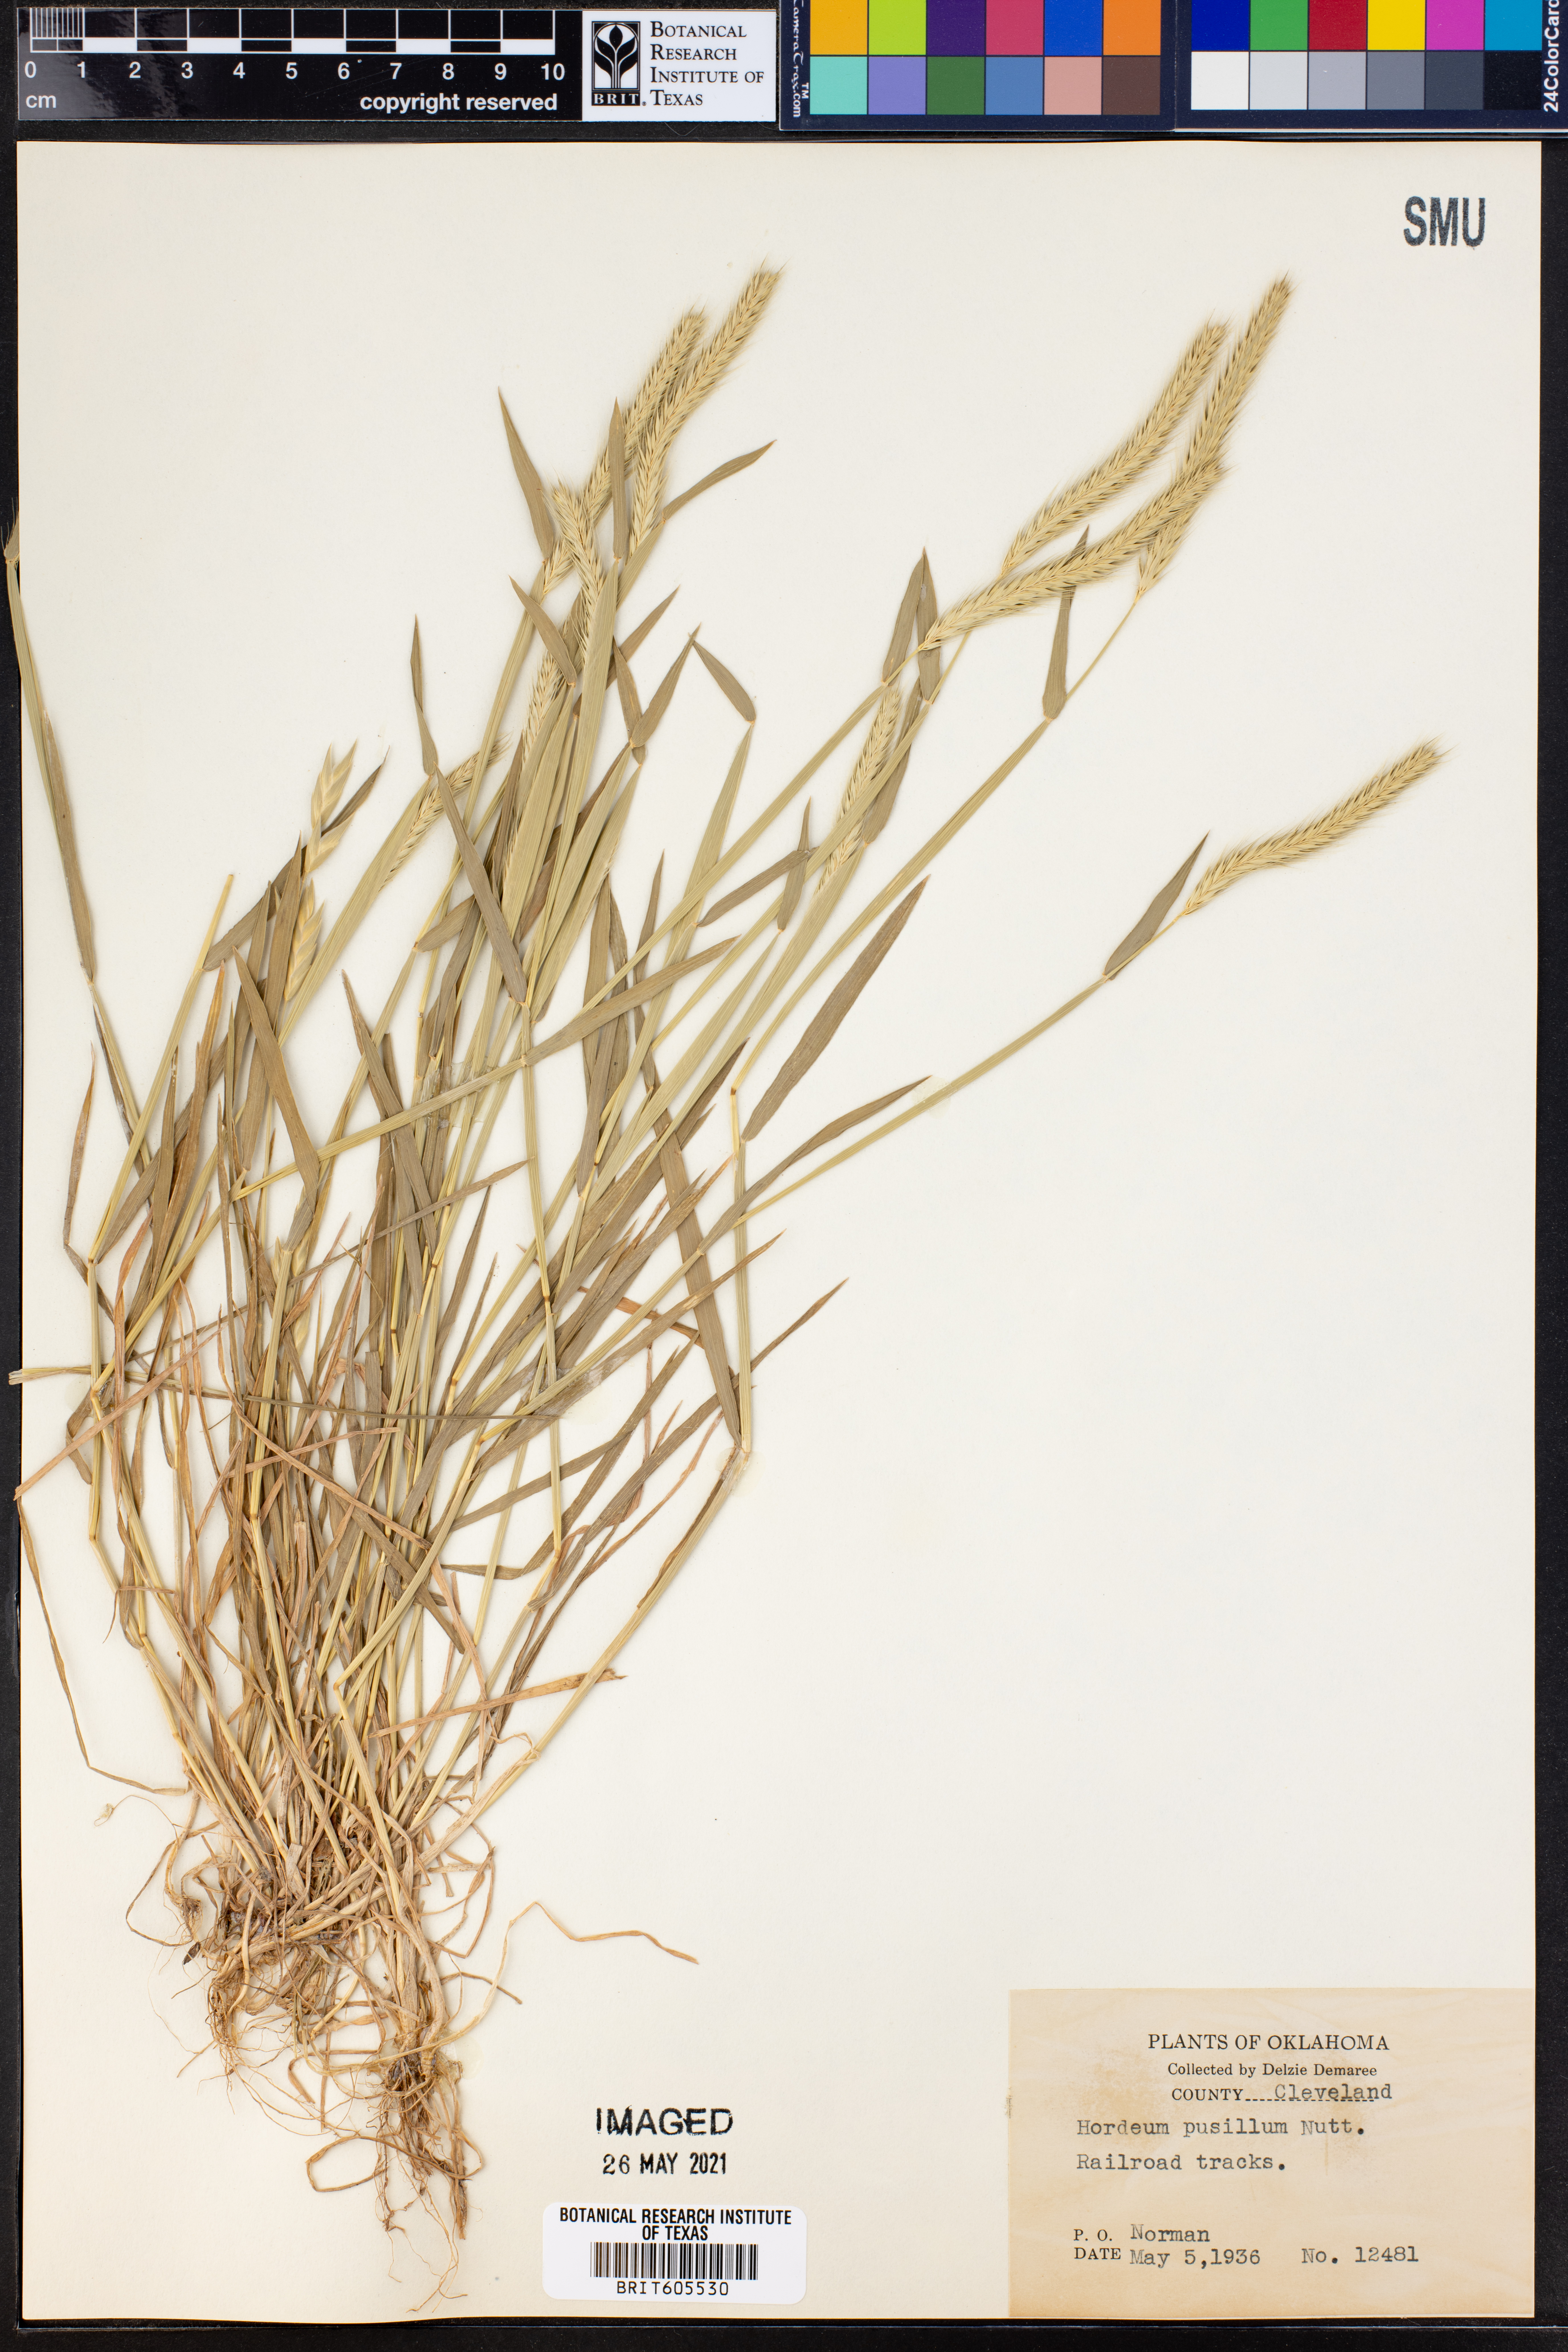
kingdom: Plantae
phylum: Tracheophyta
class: Liliopsida
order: Poales
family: Poaceae
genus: Hordeum
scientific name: Hordeum pusillum
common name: Little barley
